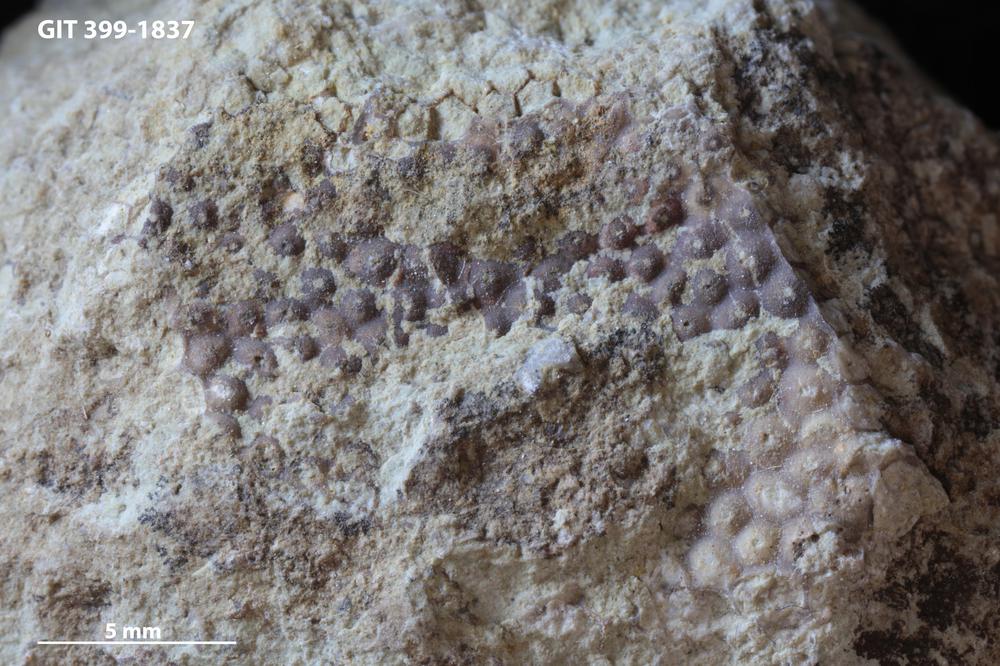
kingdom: Plantae
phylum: Chlorophyta
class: Ulvophyceae
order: Cyclocrinales
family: Cyclocrinaceae
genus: Mastopora
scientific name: Mastopora concava
